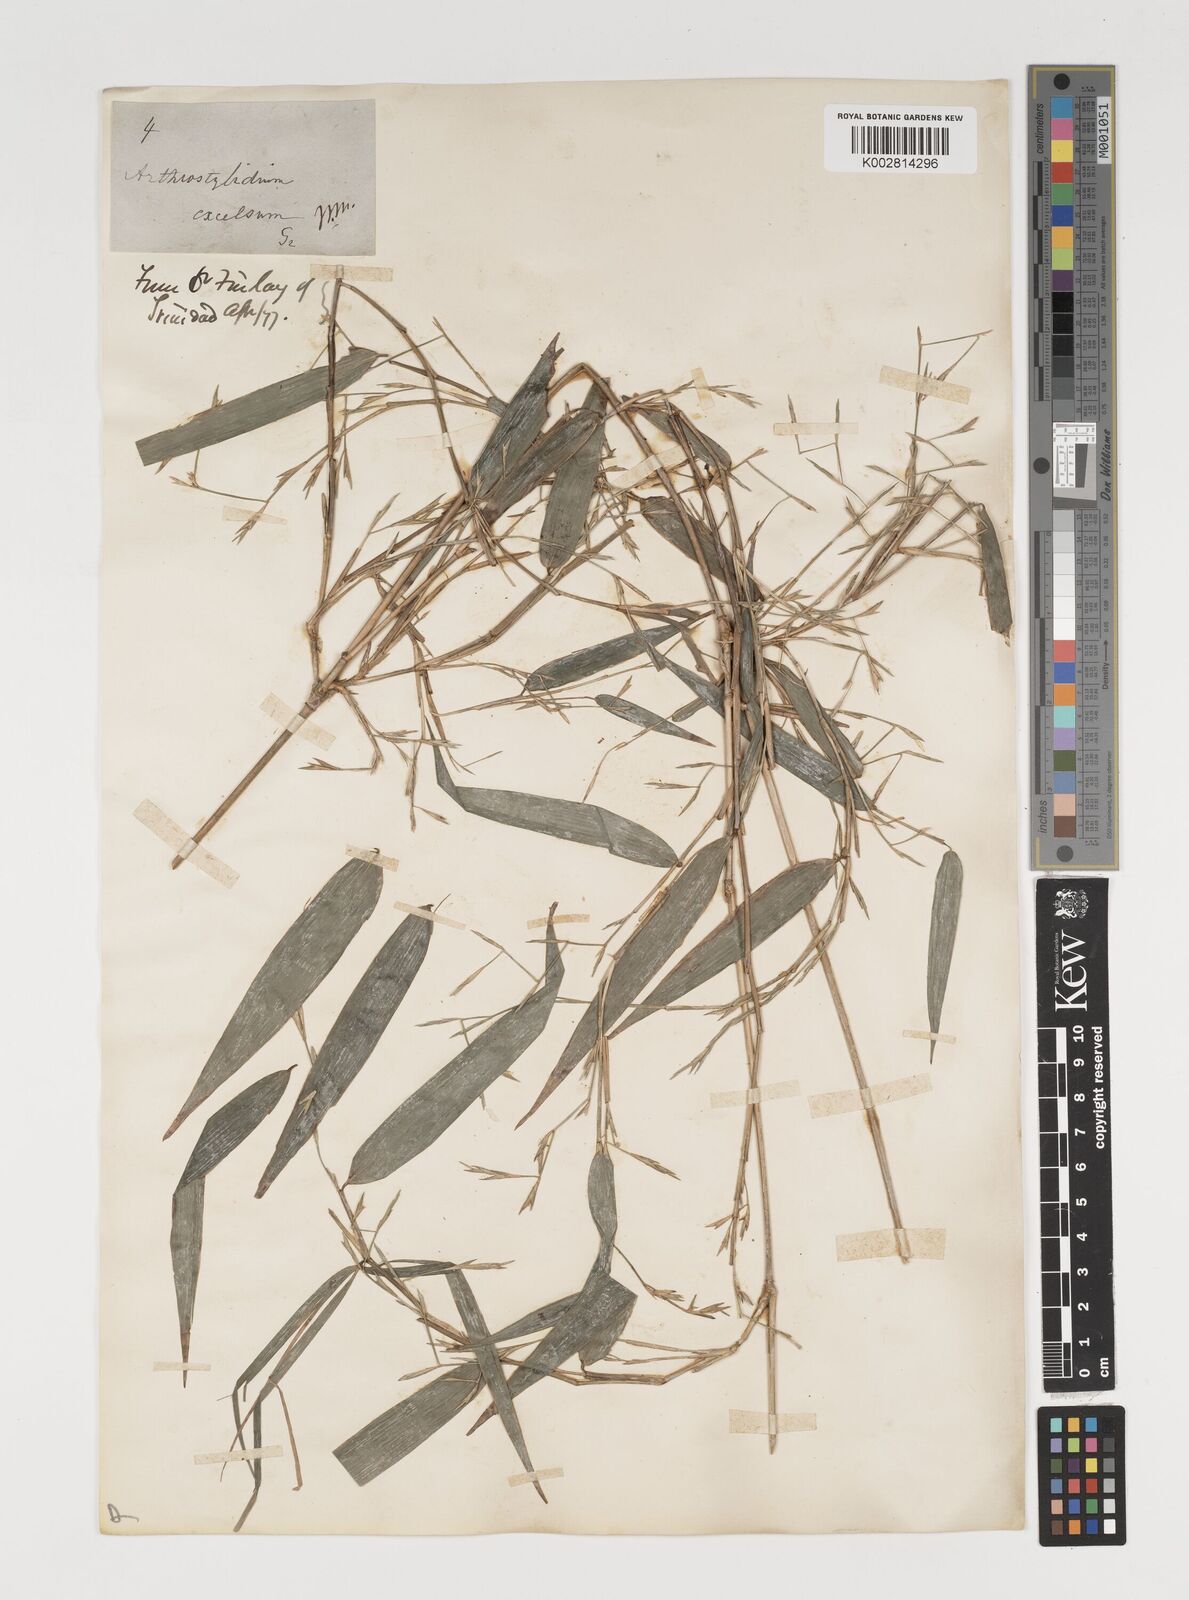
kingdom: Plantae
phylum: Tracheophyta
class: Liliopsida
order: Poales
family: Poaceae
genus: Arthrostylidium
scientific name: Arthrostylidium excelsum
